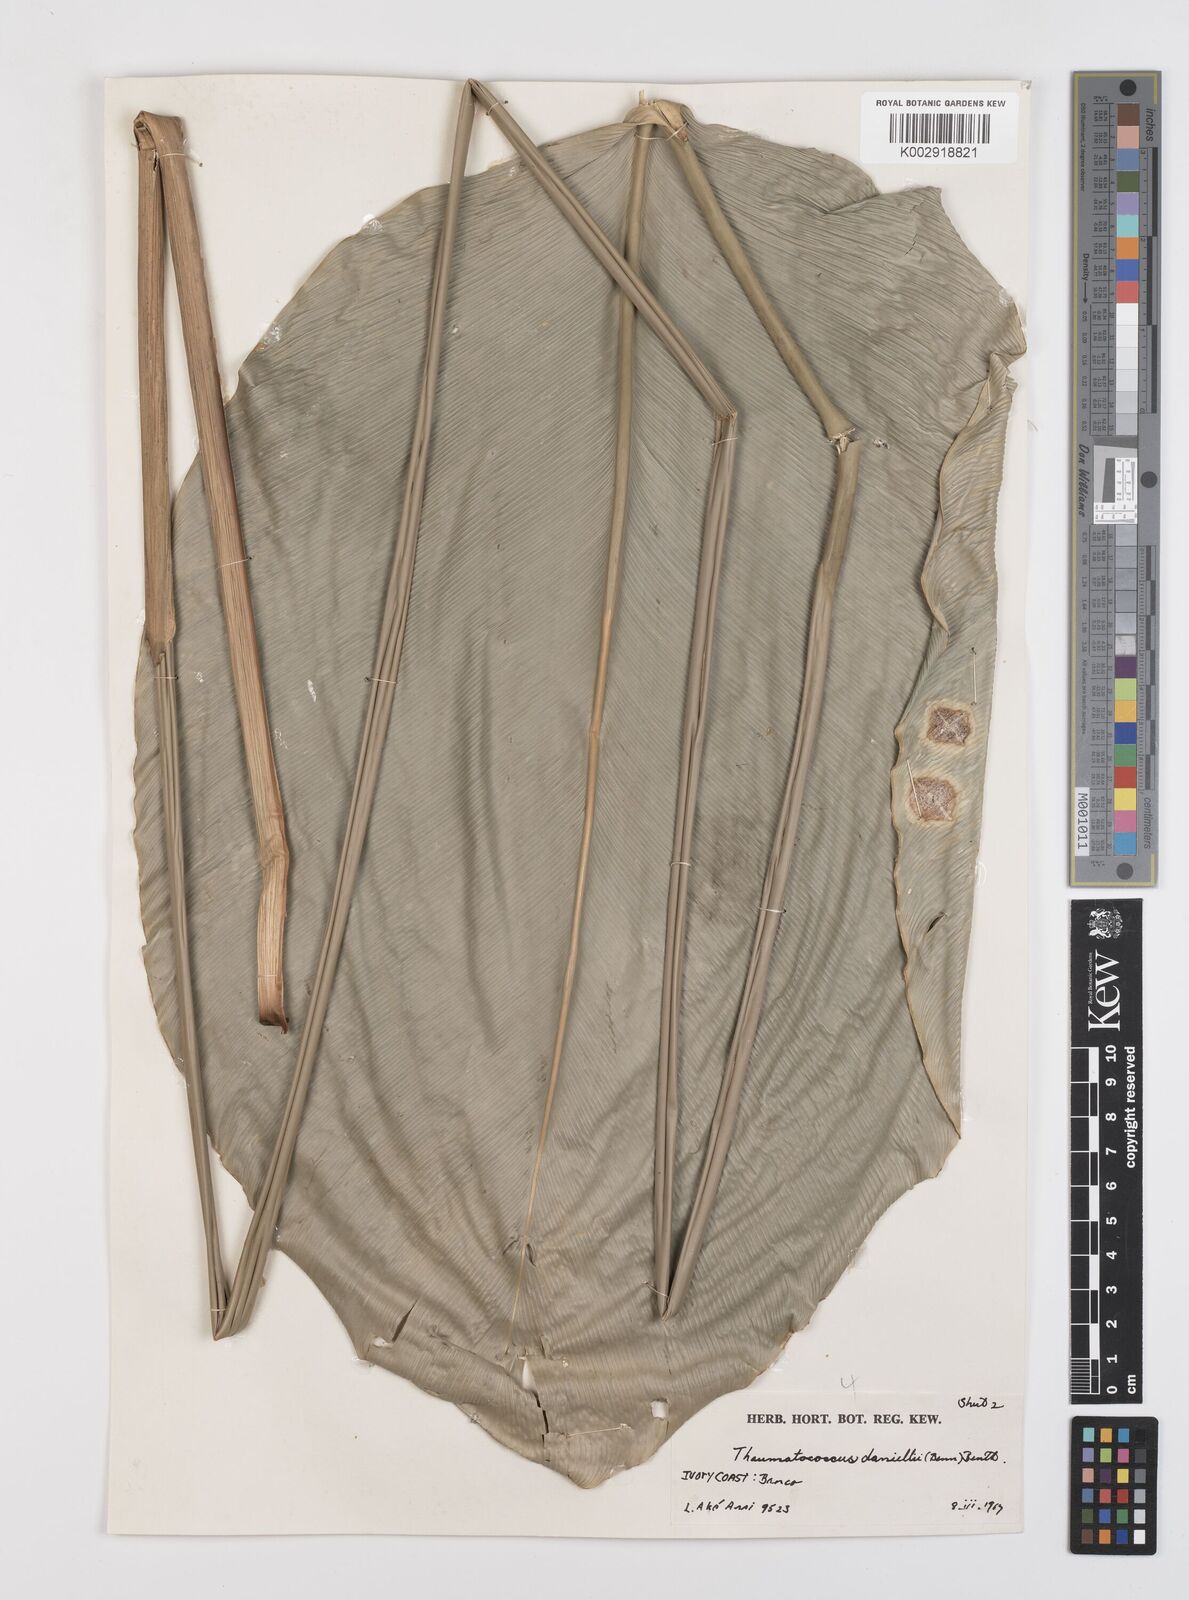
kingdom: Plantae
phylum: Tracheophyta
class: Liliopsida
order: Zingiberales
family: Marantaceae
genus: Thaumatococcus
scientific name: Thaumatococcus daniellii
